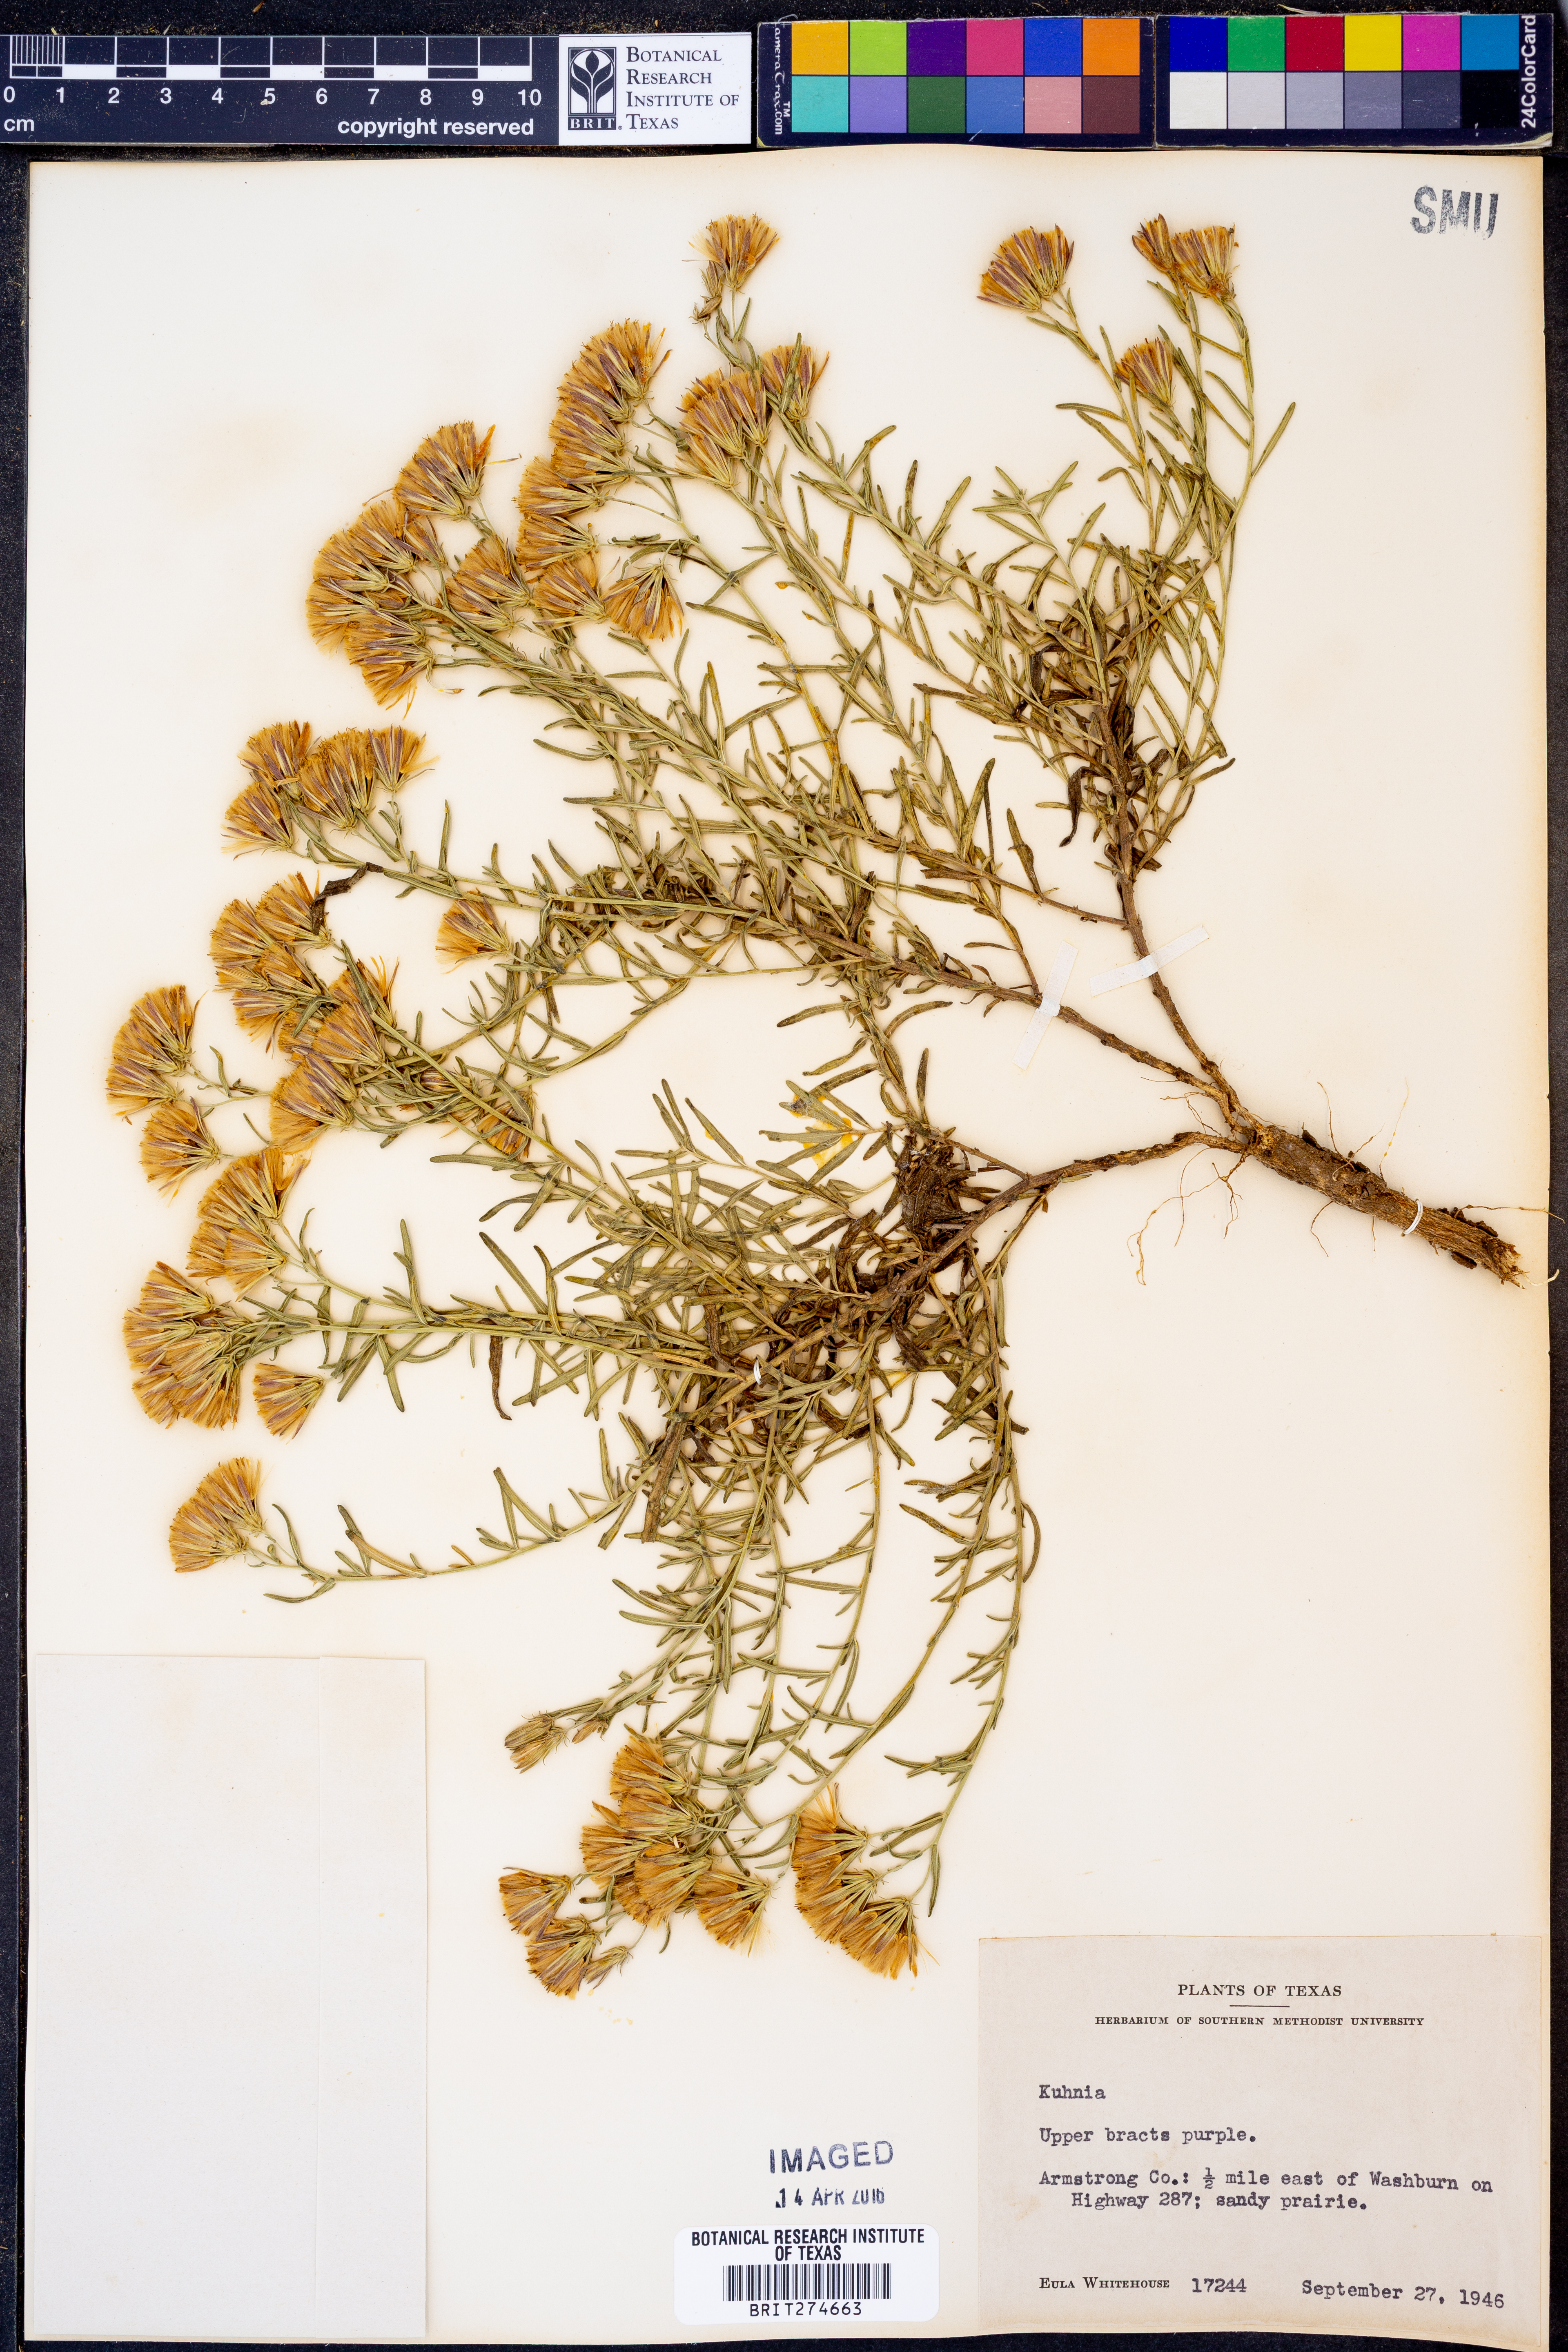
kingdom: Animalia
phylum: Platyhelminthes
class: Monogenea
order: Mazocraeidea
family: Mazocraeidae
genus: Kuhnia
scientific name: Kuhnia
